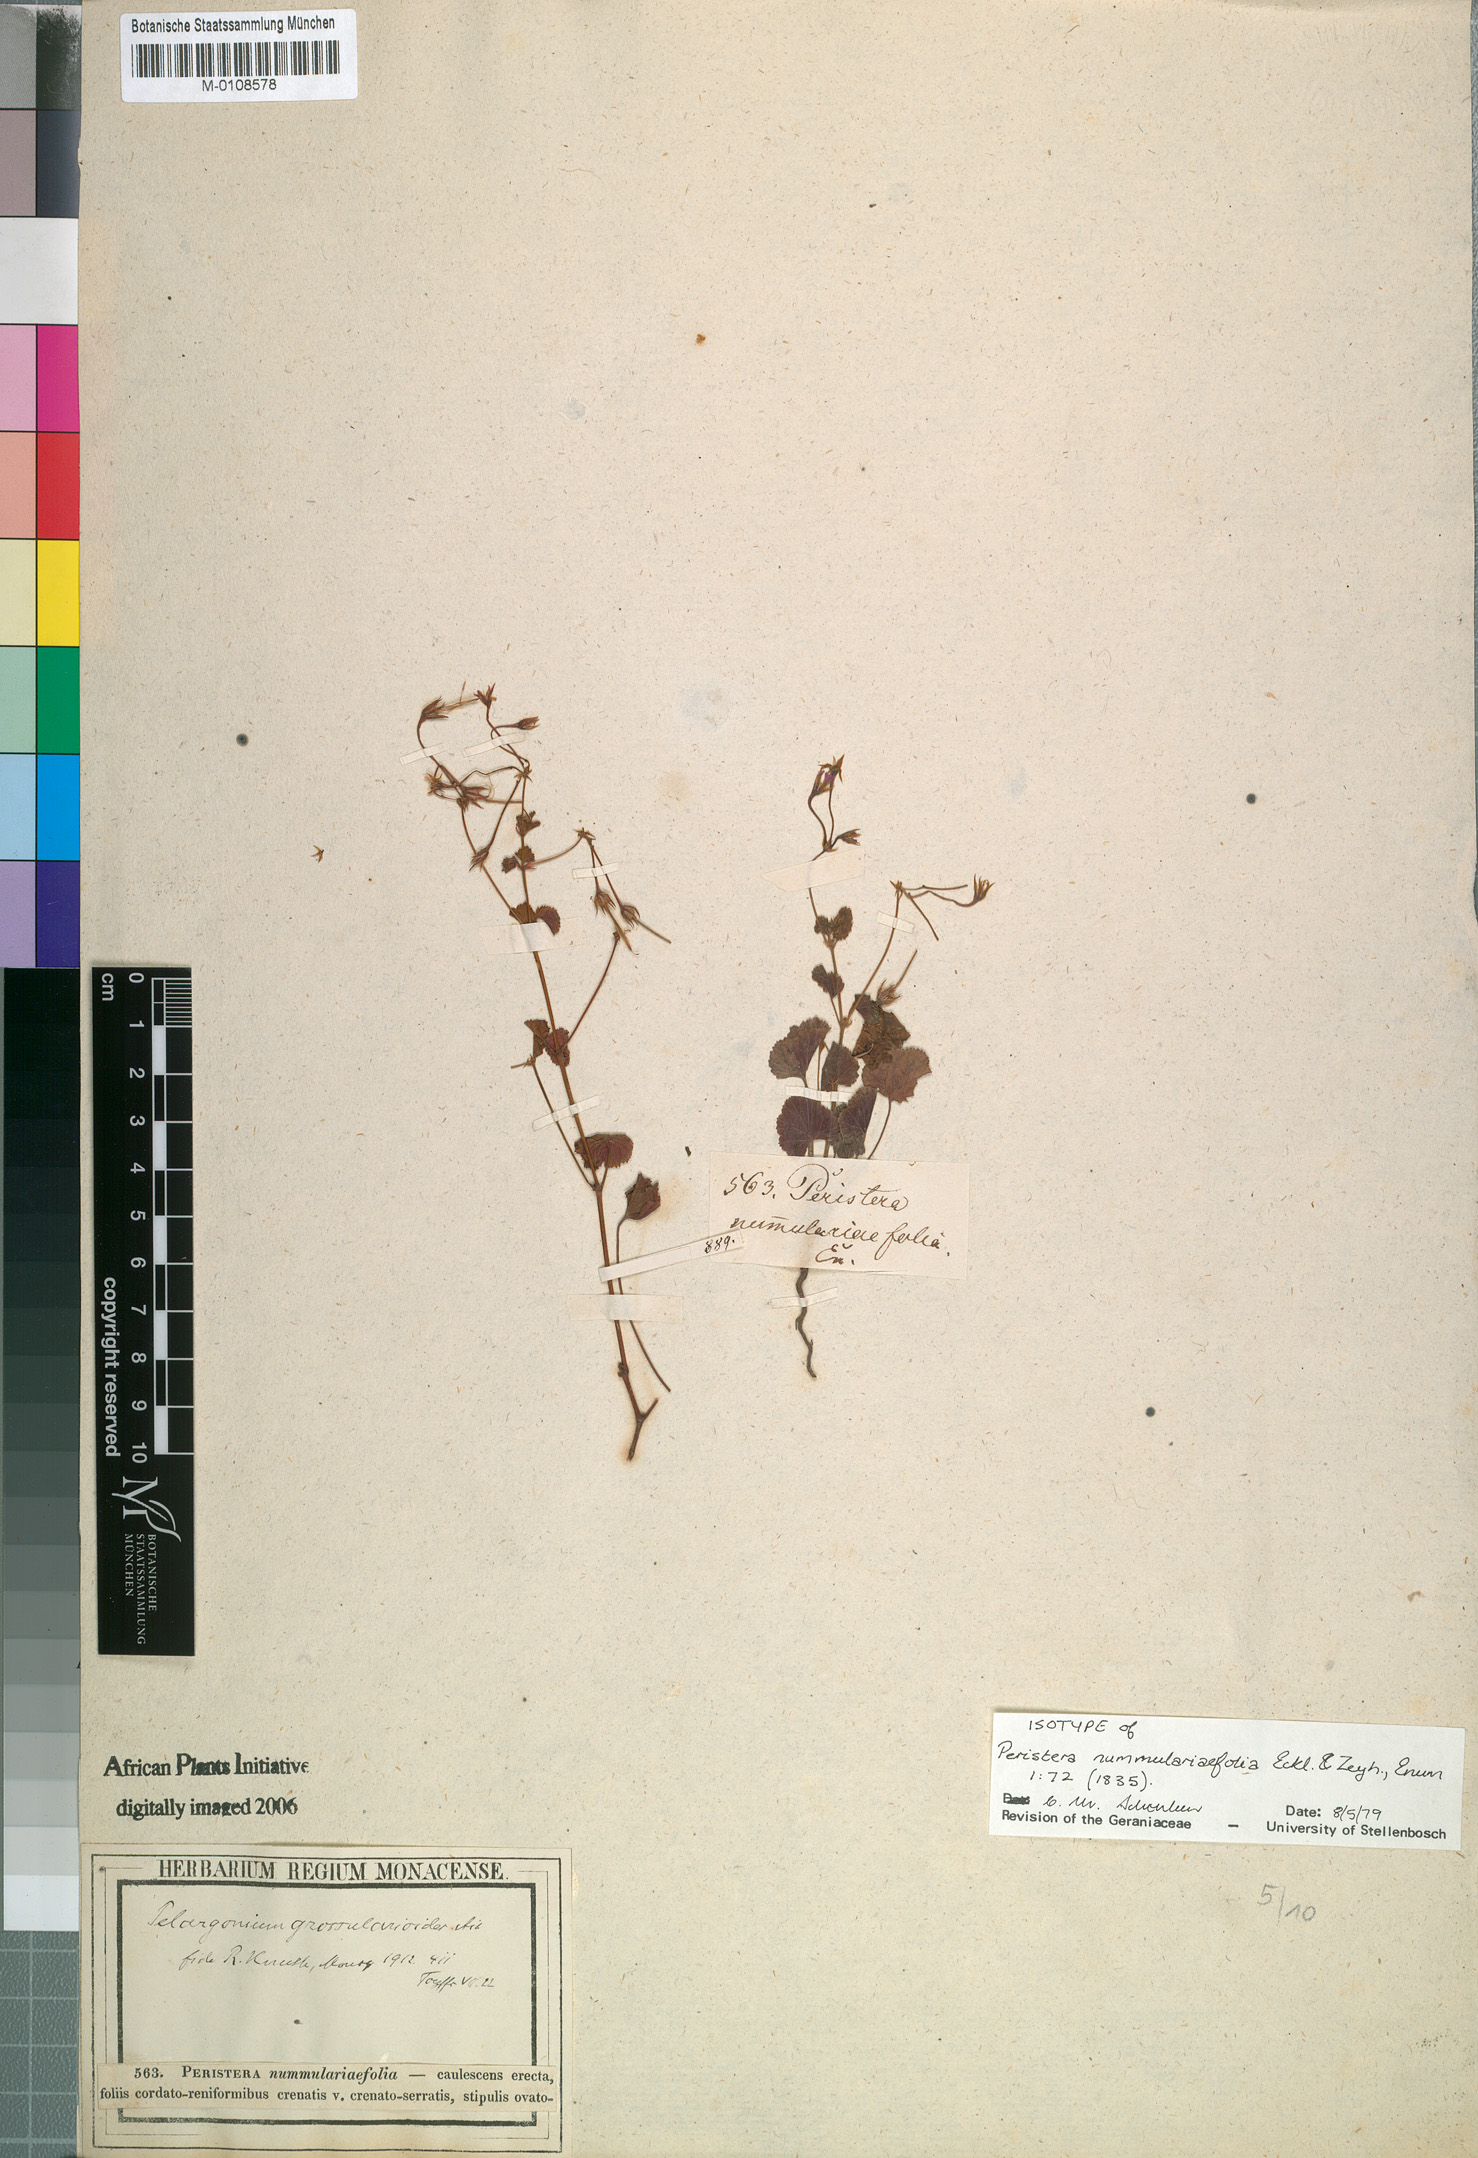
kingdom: Plantae
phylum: Tracheophyta
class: Magnoliopsida
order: Geraniales
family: Geraniaceae
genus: Pelargonium
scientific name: Pelargonium grossularioides
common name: Gooseberry geranium
